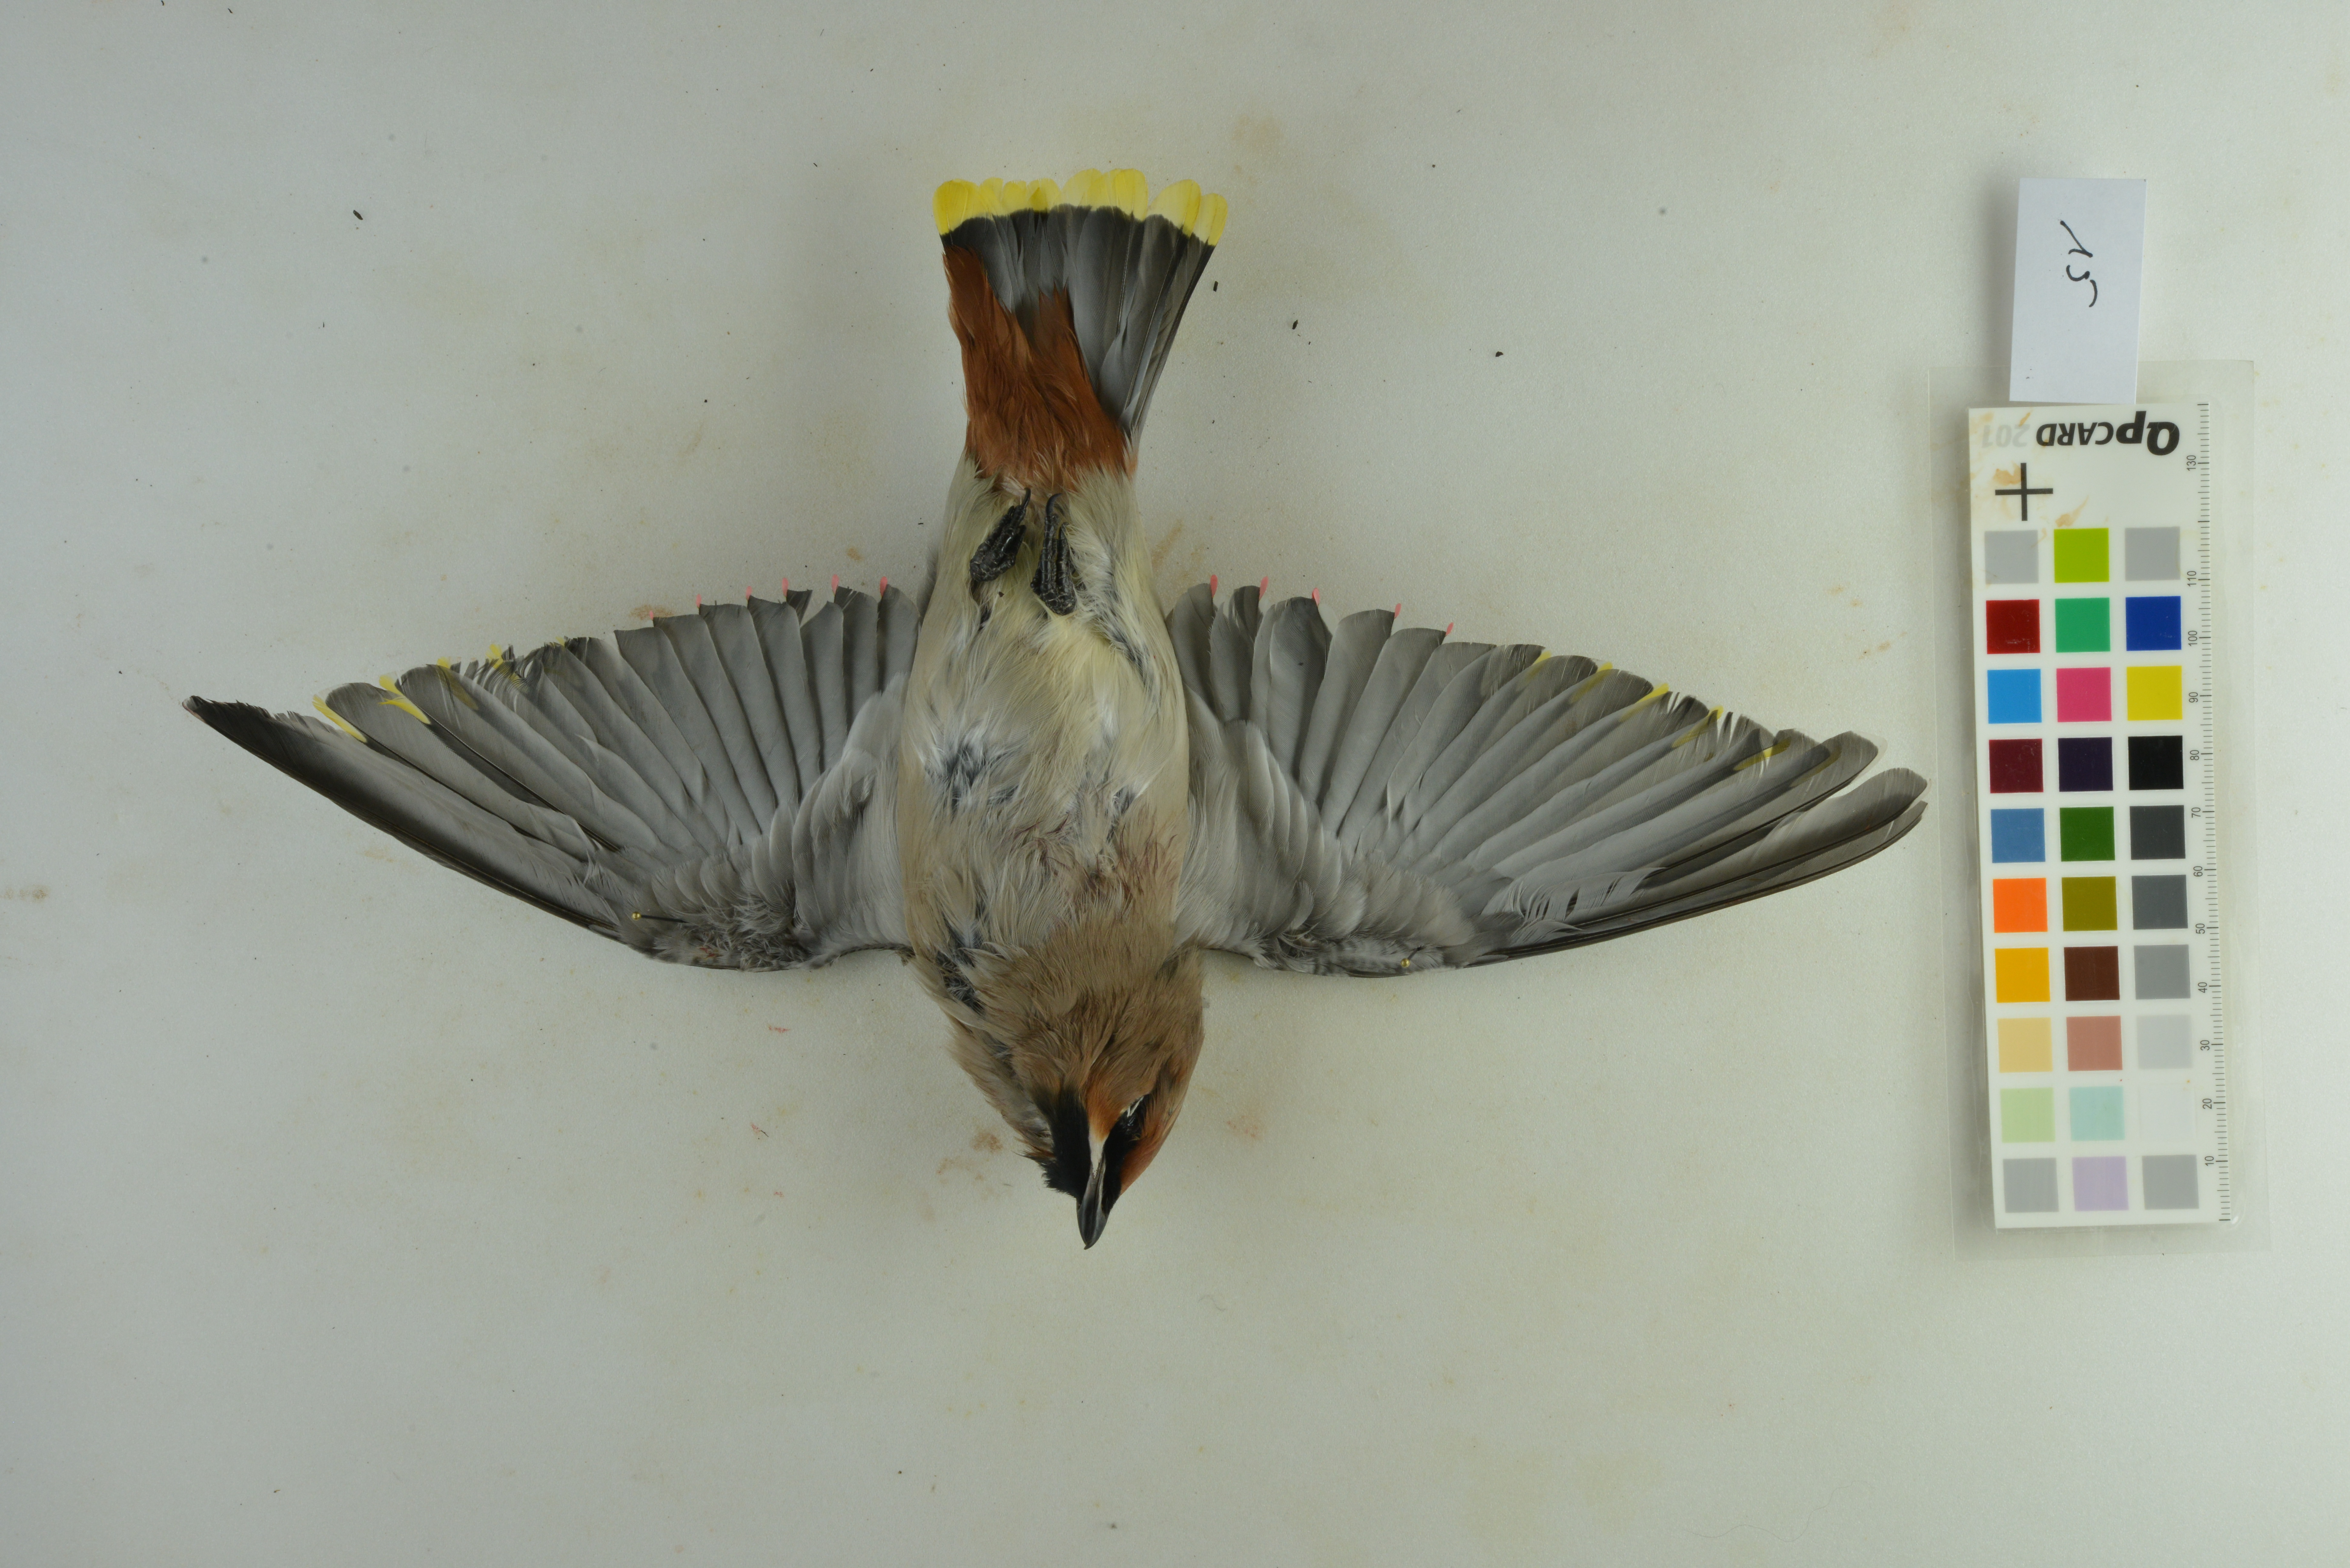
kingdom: Animalia
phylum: Chordata
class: Aves
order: Passeriformes
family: Bombycillidae
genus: Bombycilla
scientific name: Bombycilla garrulus
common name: Bohemian waxwing
